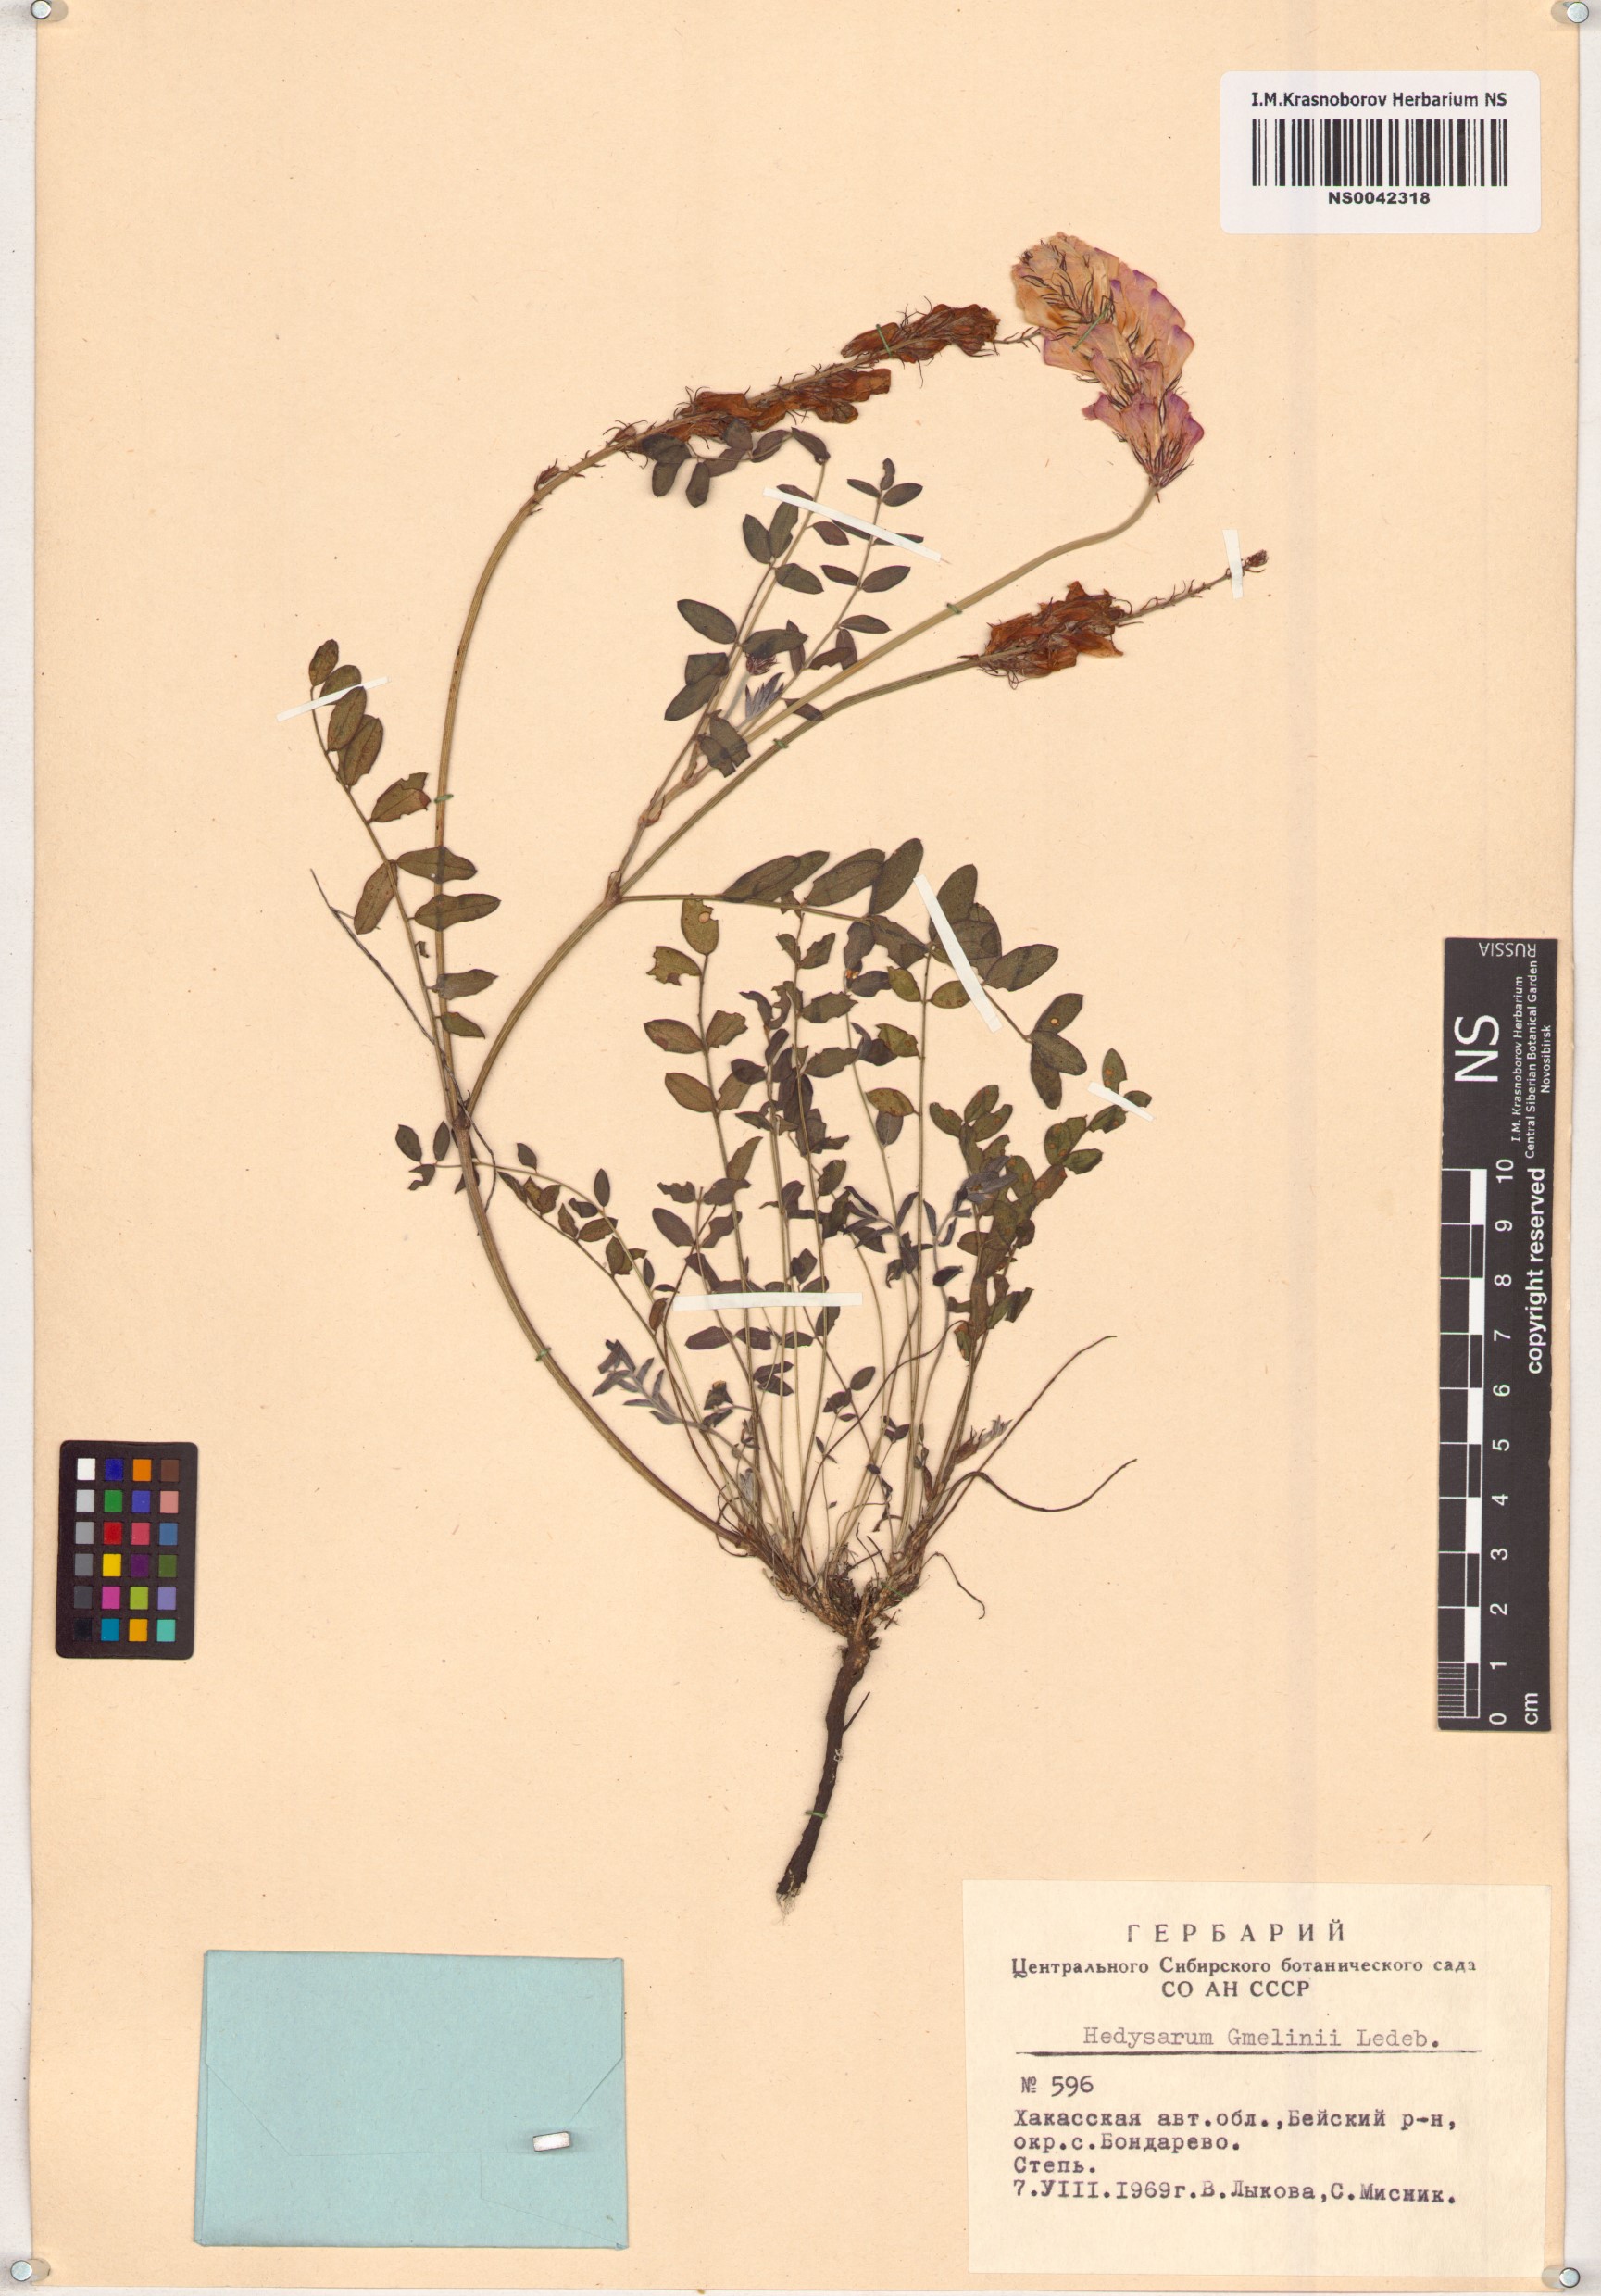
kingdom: Plantae
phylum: Tracheophyta
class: Magnoliopsida
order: Fabales
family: Fabaceae
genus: Hedysarum
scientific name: Hedysarum gmelinii
